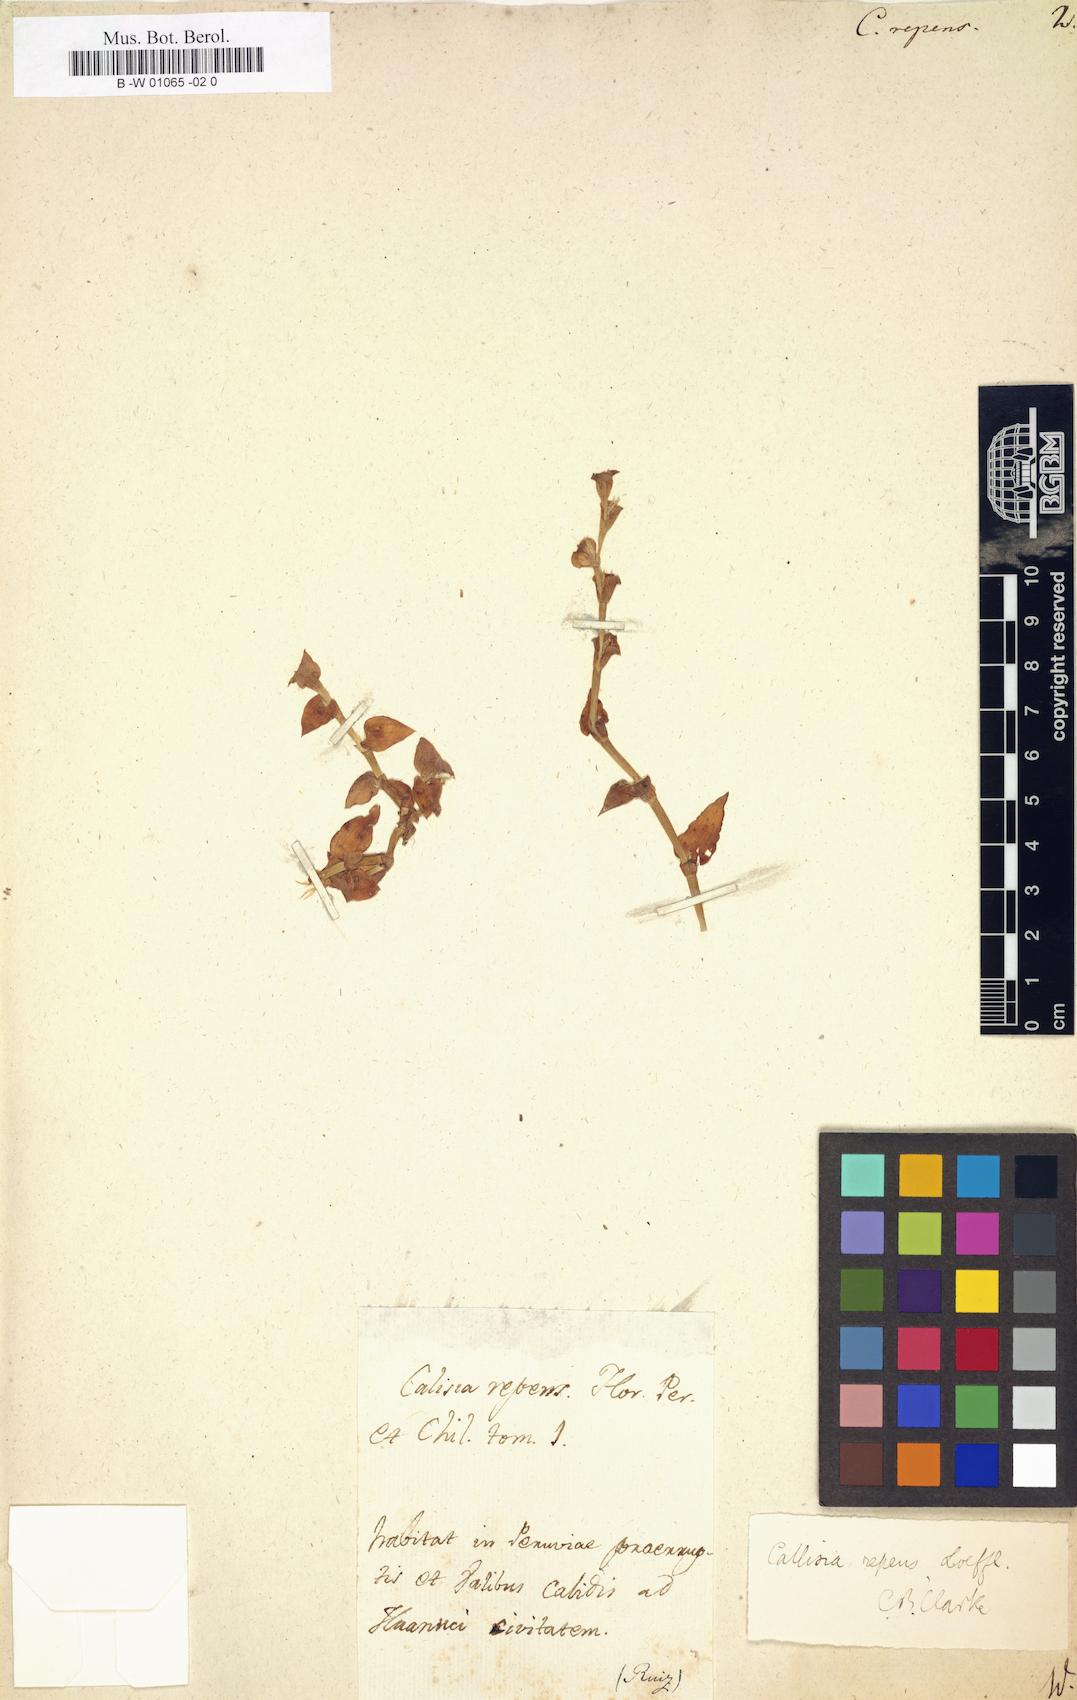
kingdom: Plantae
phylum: Tracheophyta
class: Liliopsida
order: Commelinales
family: Commelinaceae
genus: Callisia
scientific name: Callisia repens
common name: Creeping inchplant
